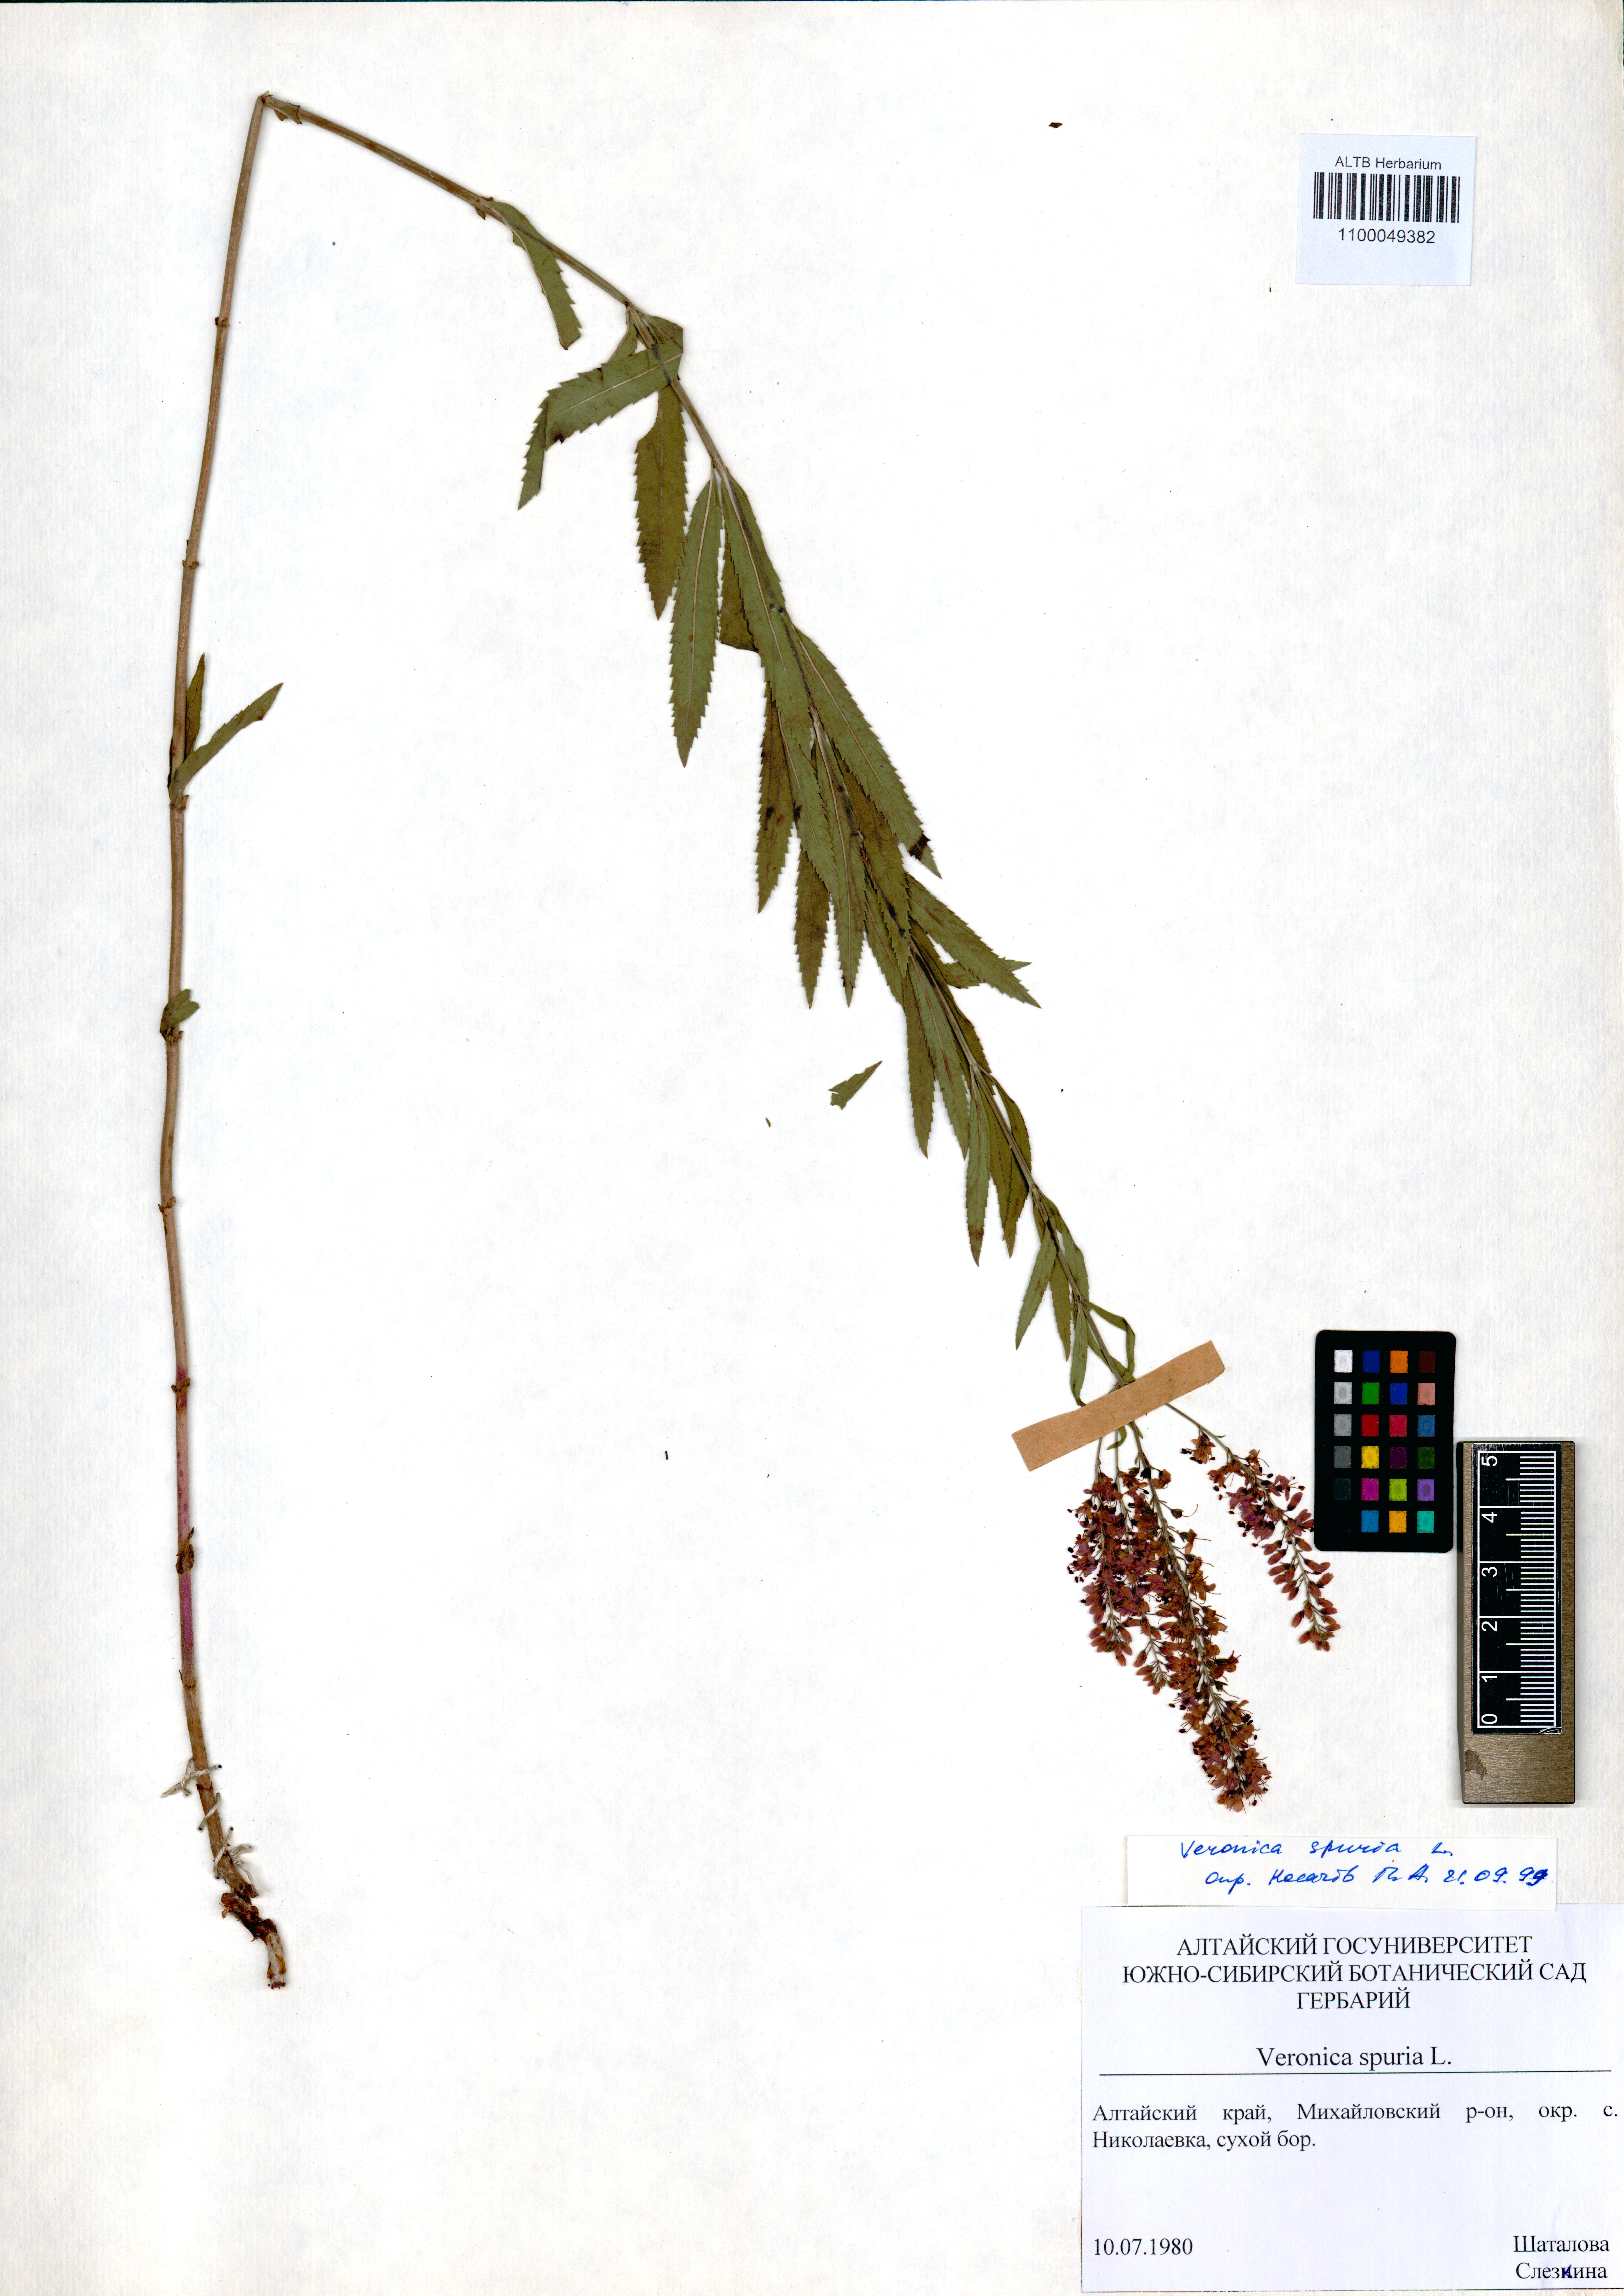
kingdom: Plantae
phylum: Tracheophyta
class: Magnoliopsida
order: Lamiales
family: Plantaginaceae
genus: Veronica
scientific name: Veronica spuria
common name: Bastard speedwell
